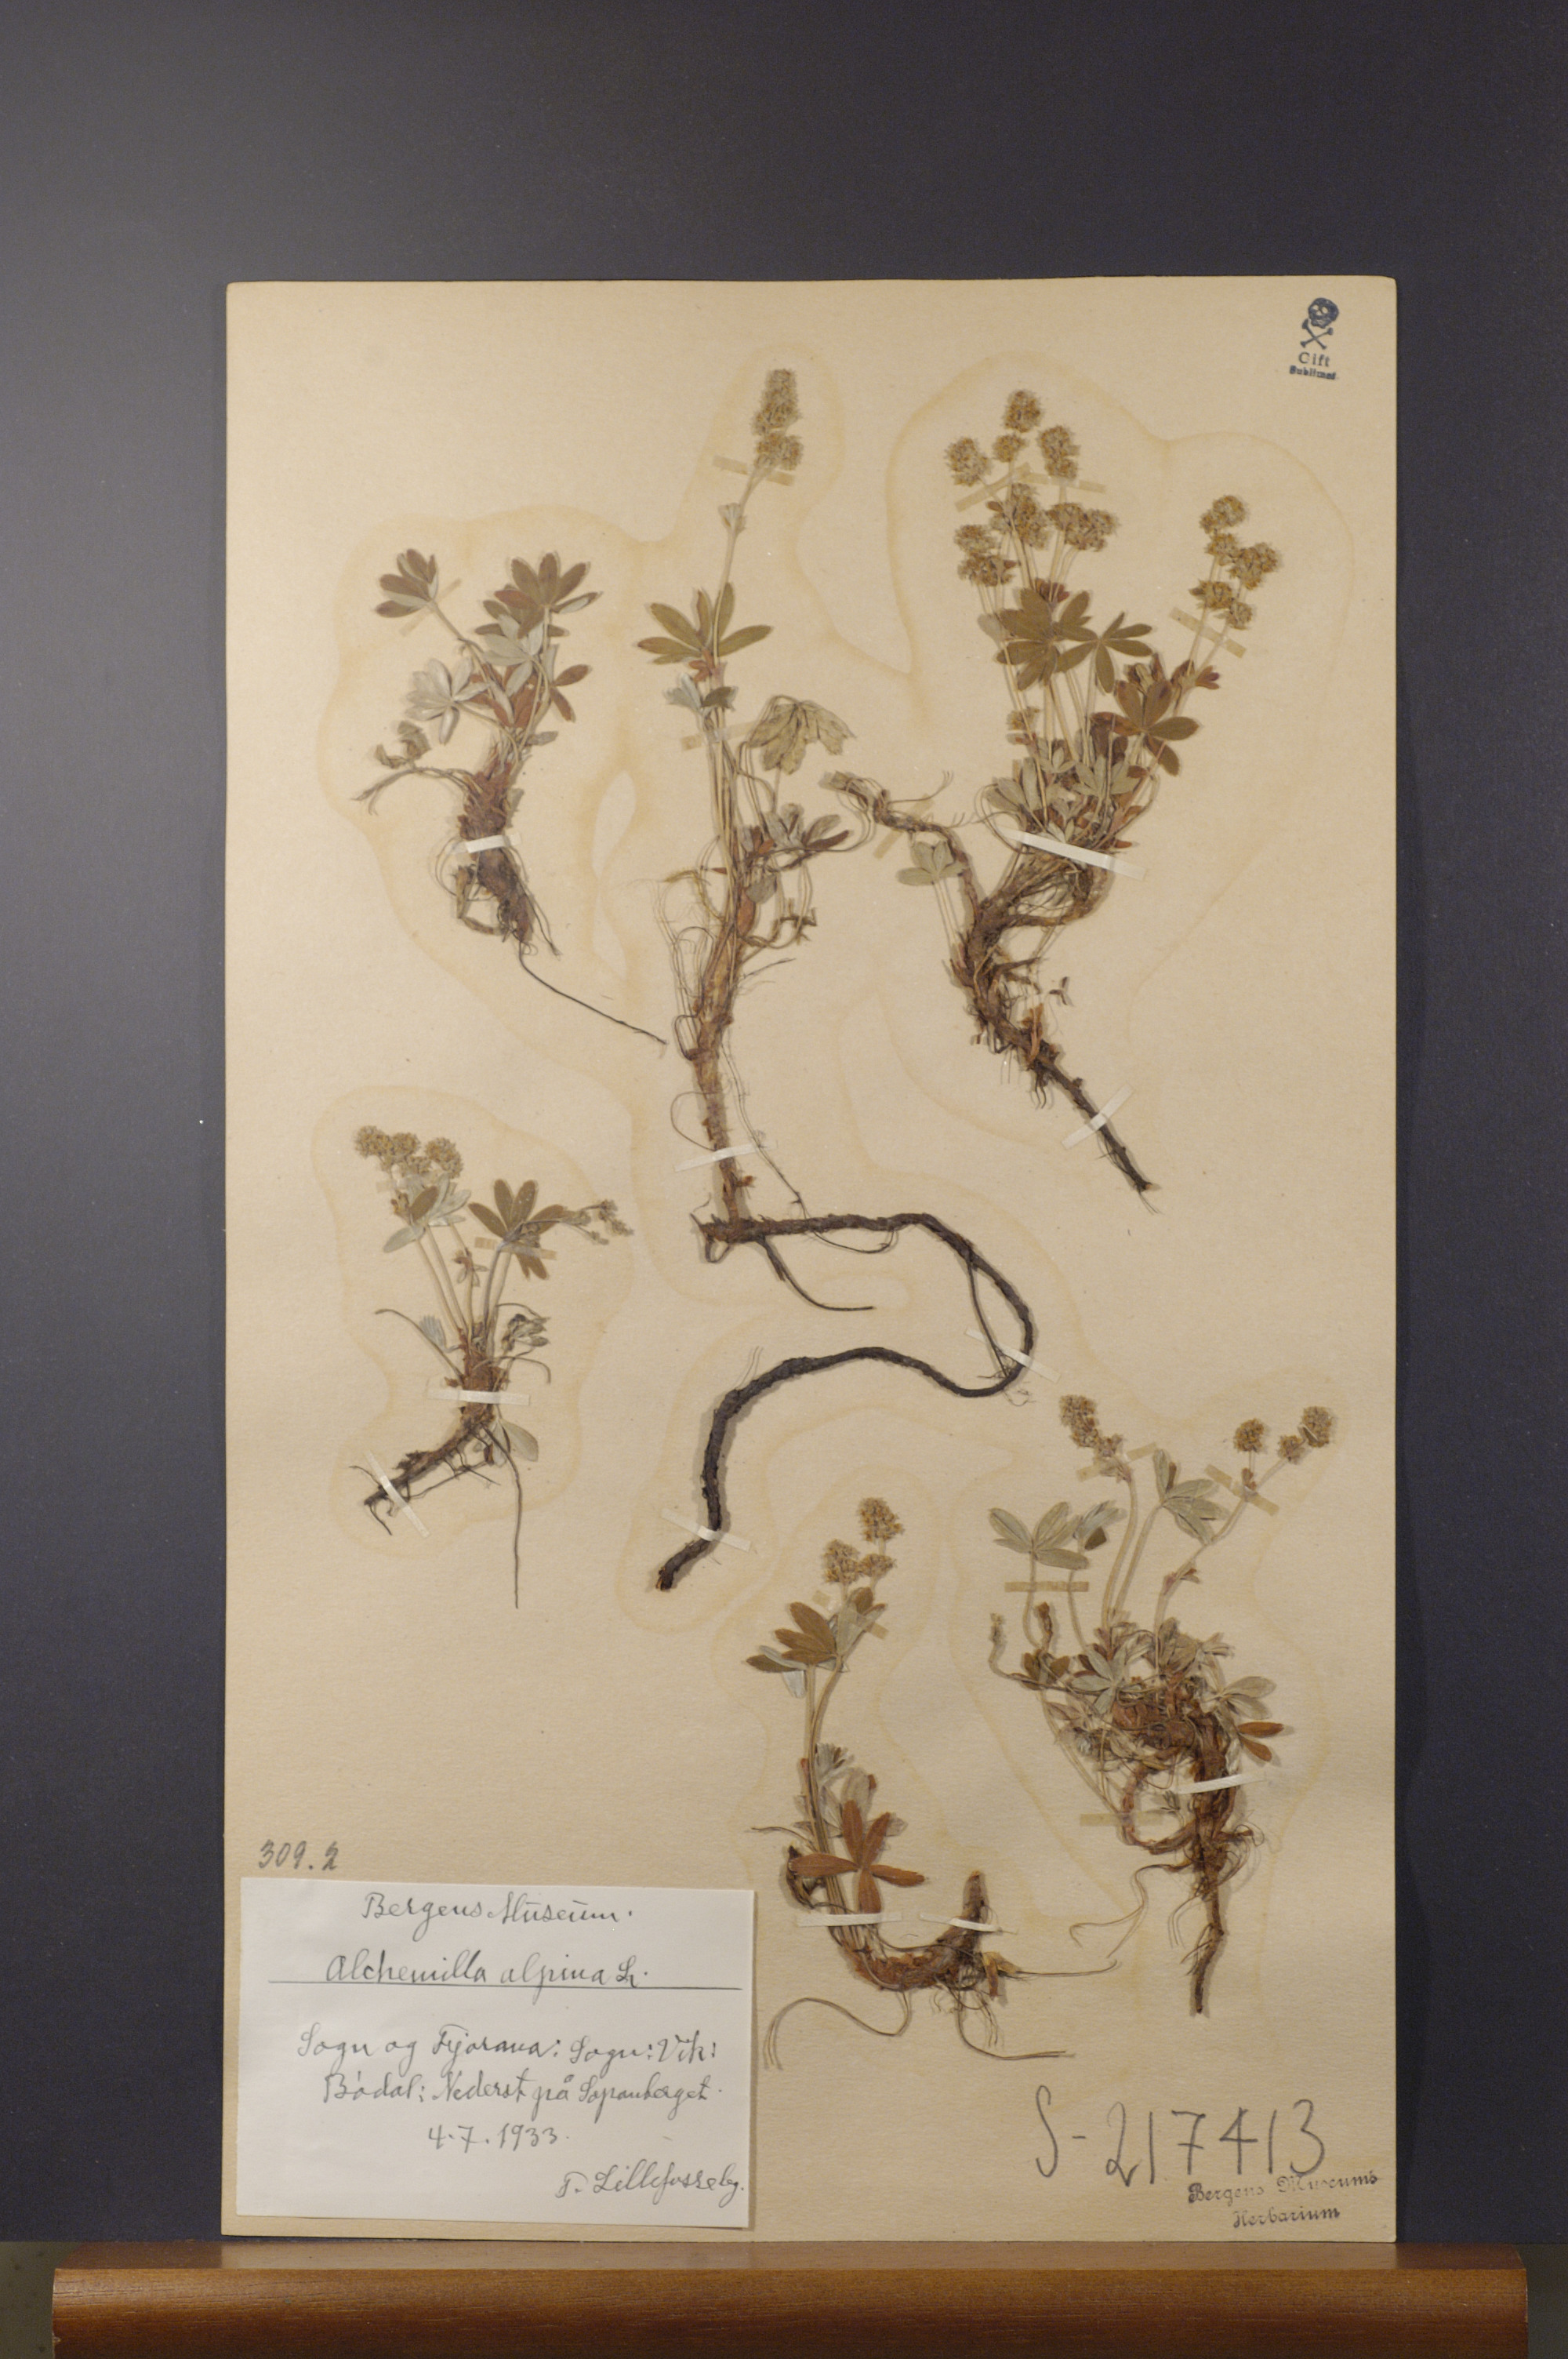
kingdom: Plantae
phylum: Tracheophyta
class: Magnoliopsida
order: Rosales
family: Rosaceae
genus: Alchemilla
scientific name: Alchemilla alpina
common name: Alpine lady's-mantle
